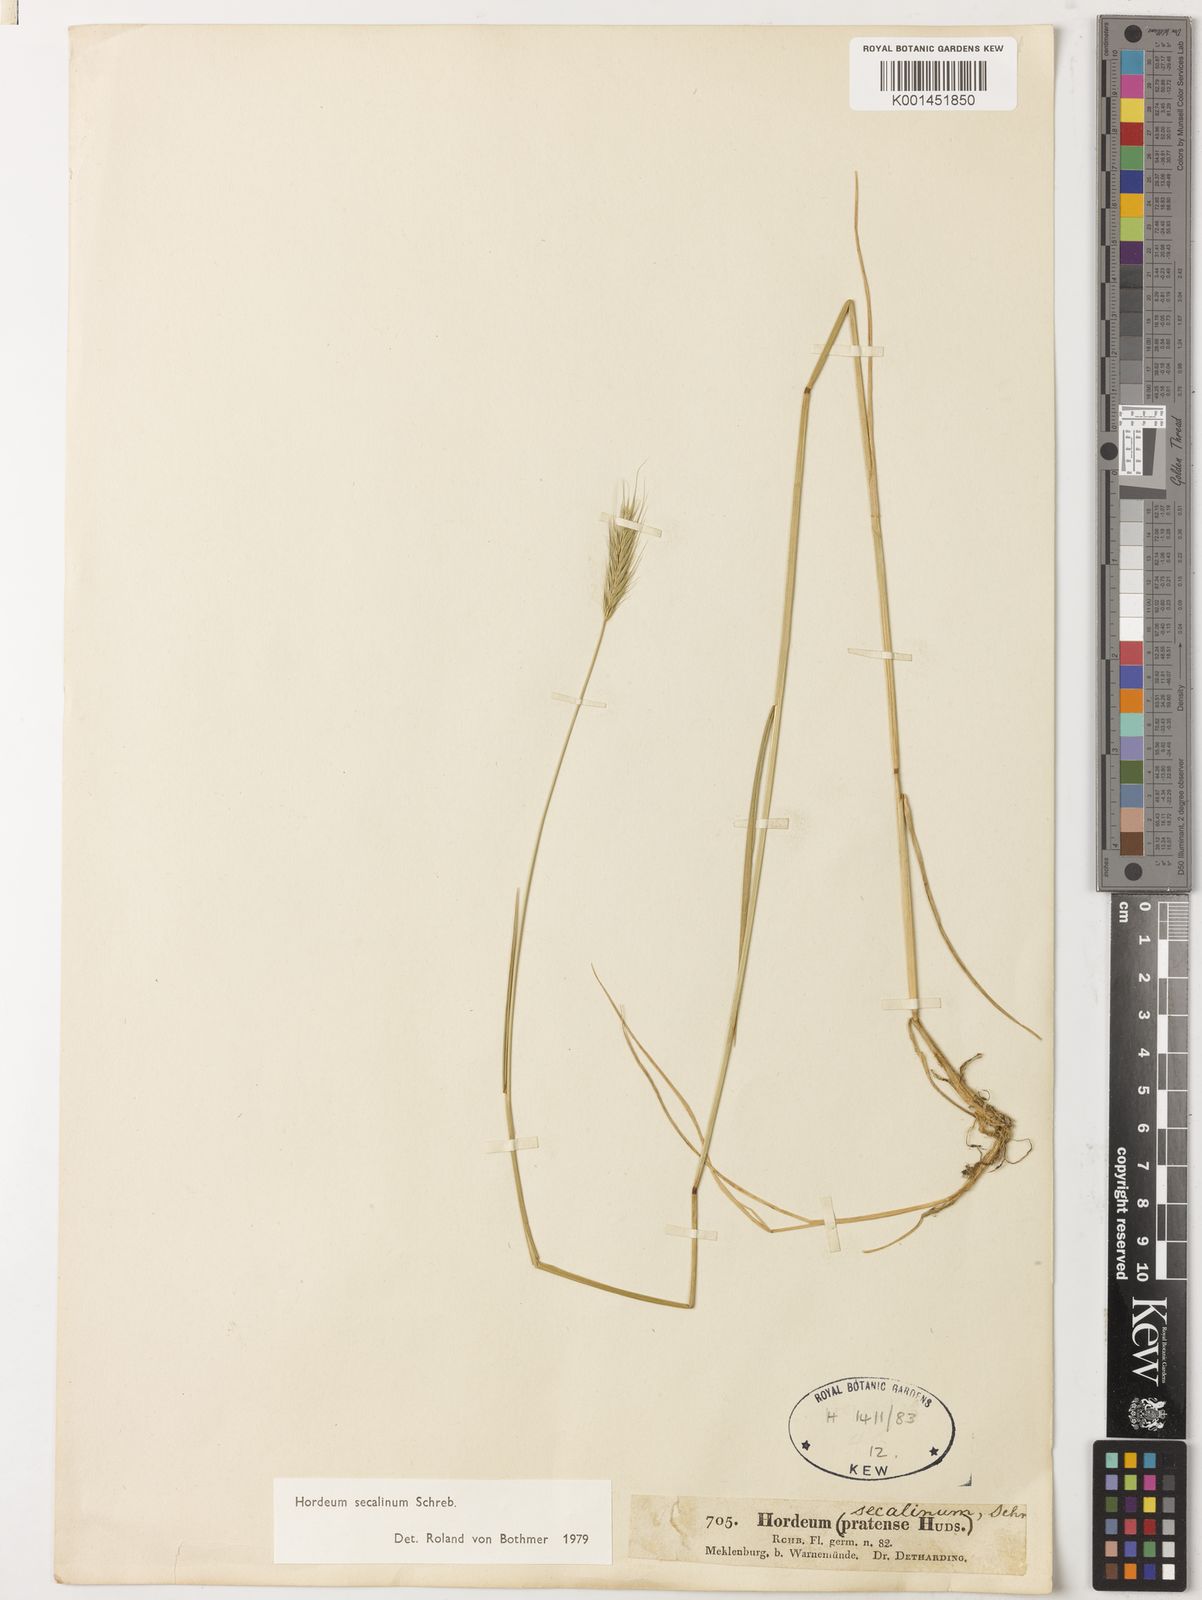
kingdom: Plantae
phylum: Tracheophyta
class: Liliopsida
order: Poales
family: Poaceae
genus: Hordeum
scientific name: Hordeum secalinum
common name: Meadow barley
